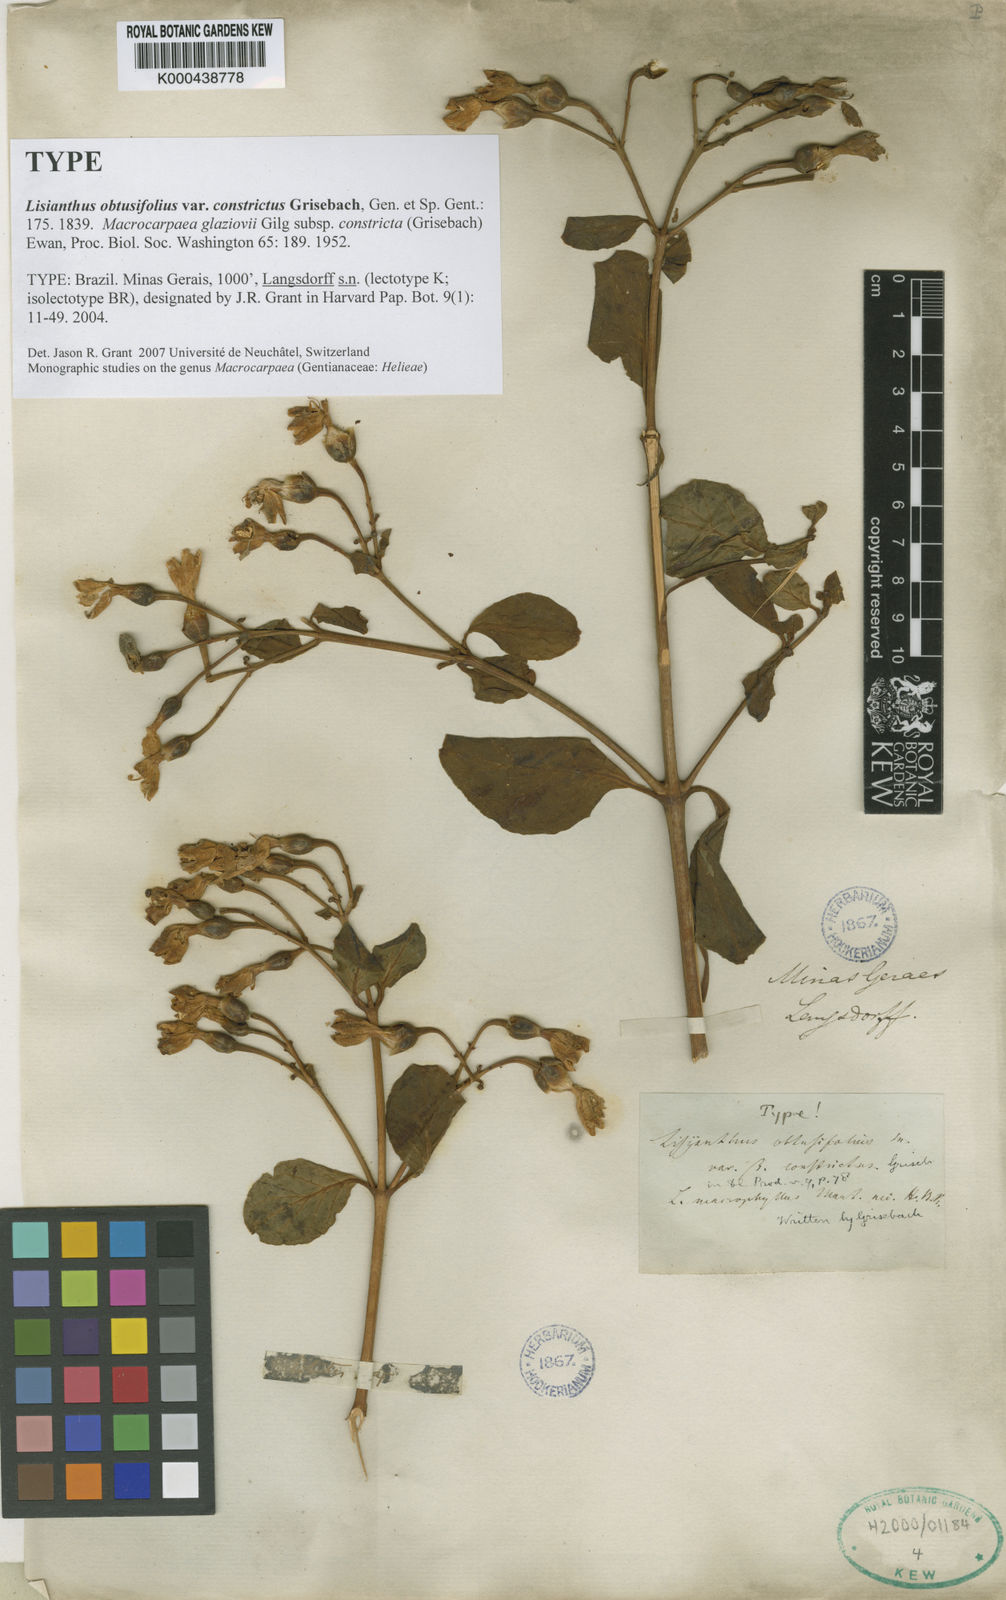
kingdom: Plantae
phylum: Tracheophyta
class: Magnoliopsida
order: Gentianales
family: Gentianaceae
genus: Lisianthus
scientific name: Lisianthus
